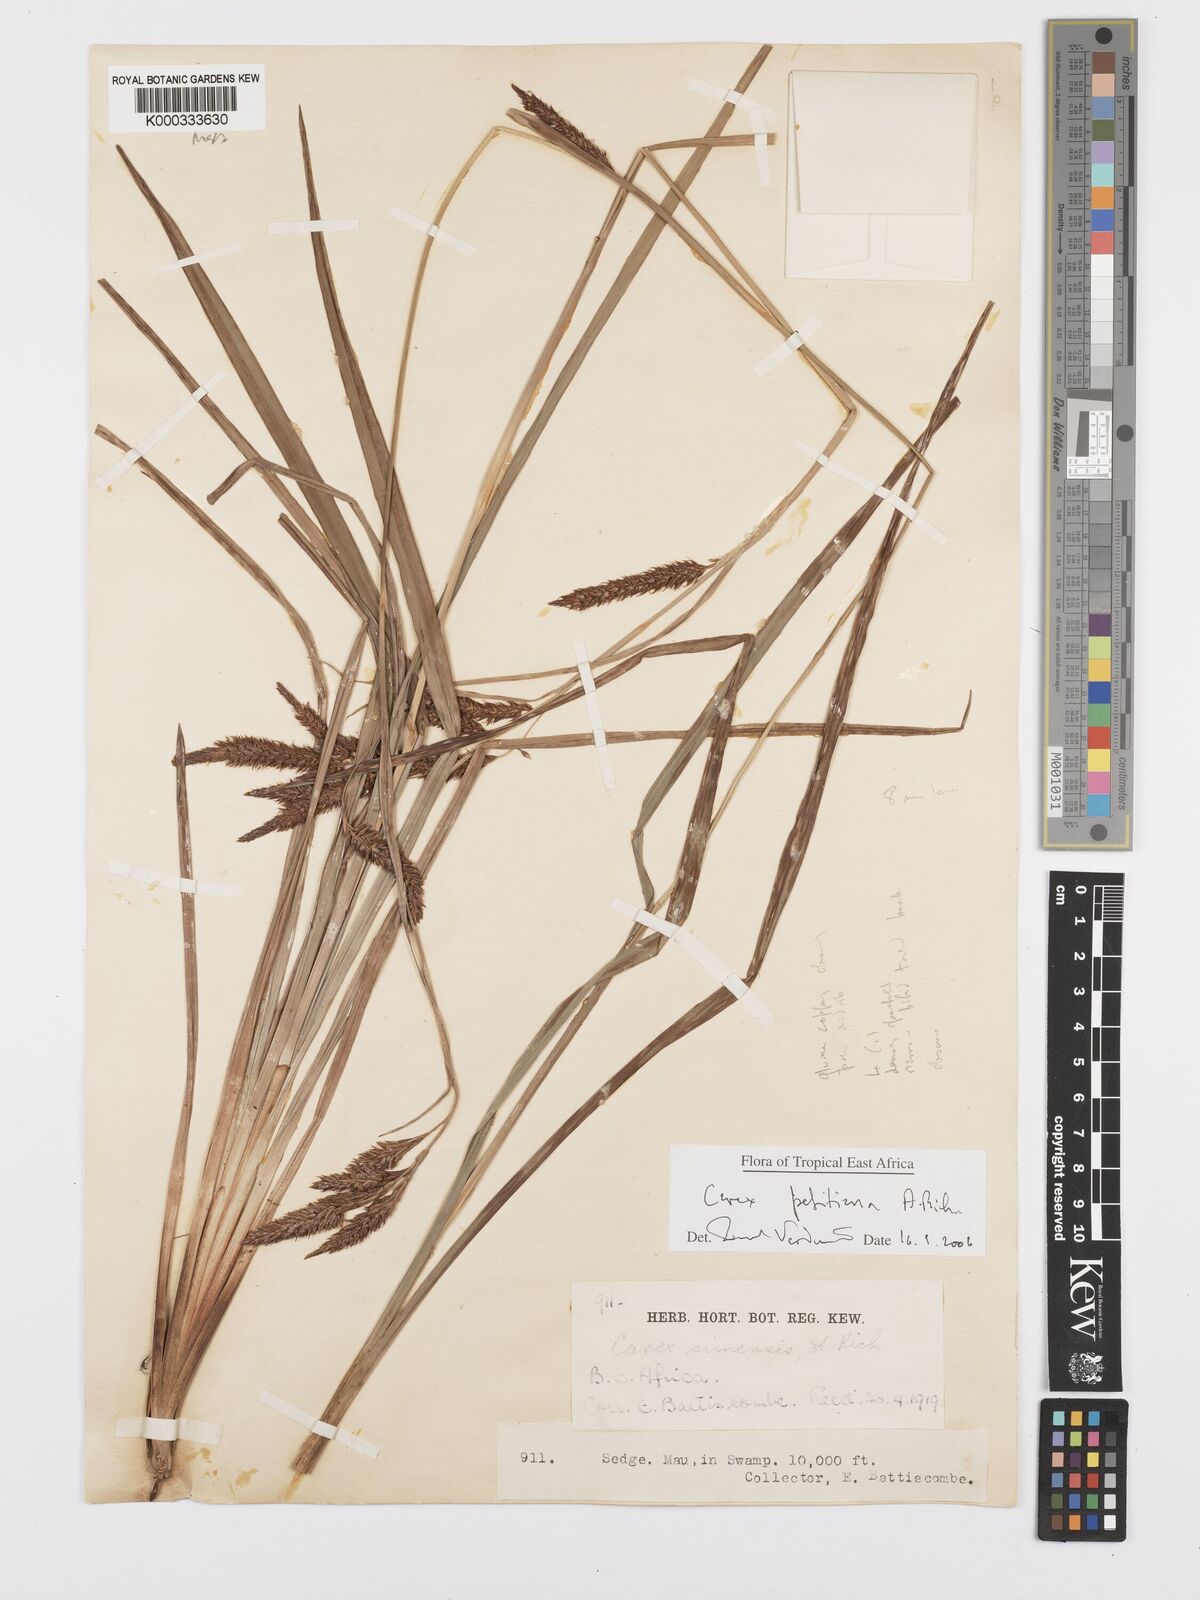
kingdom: Plantae
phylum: Tracheophyta
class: Liliopsida
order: Poales
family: Cyperaceae
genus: Carex
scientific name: Carex petitiana
